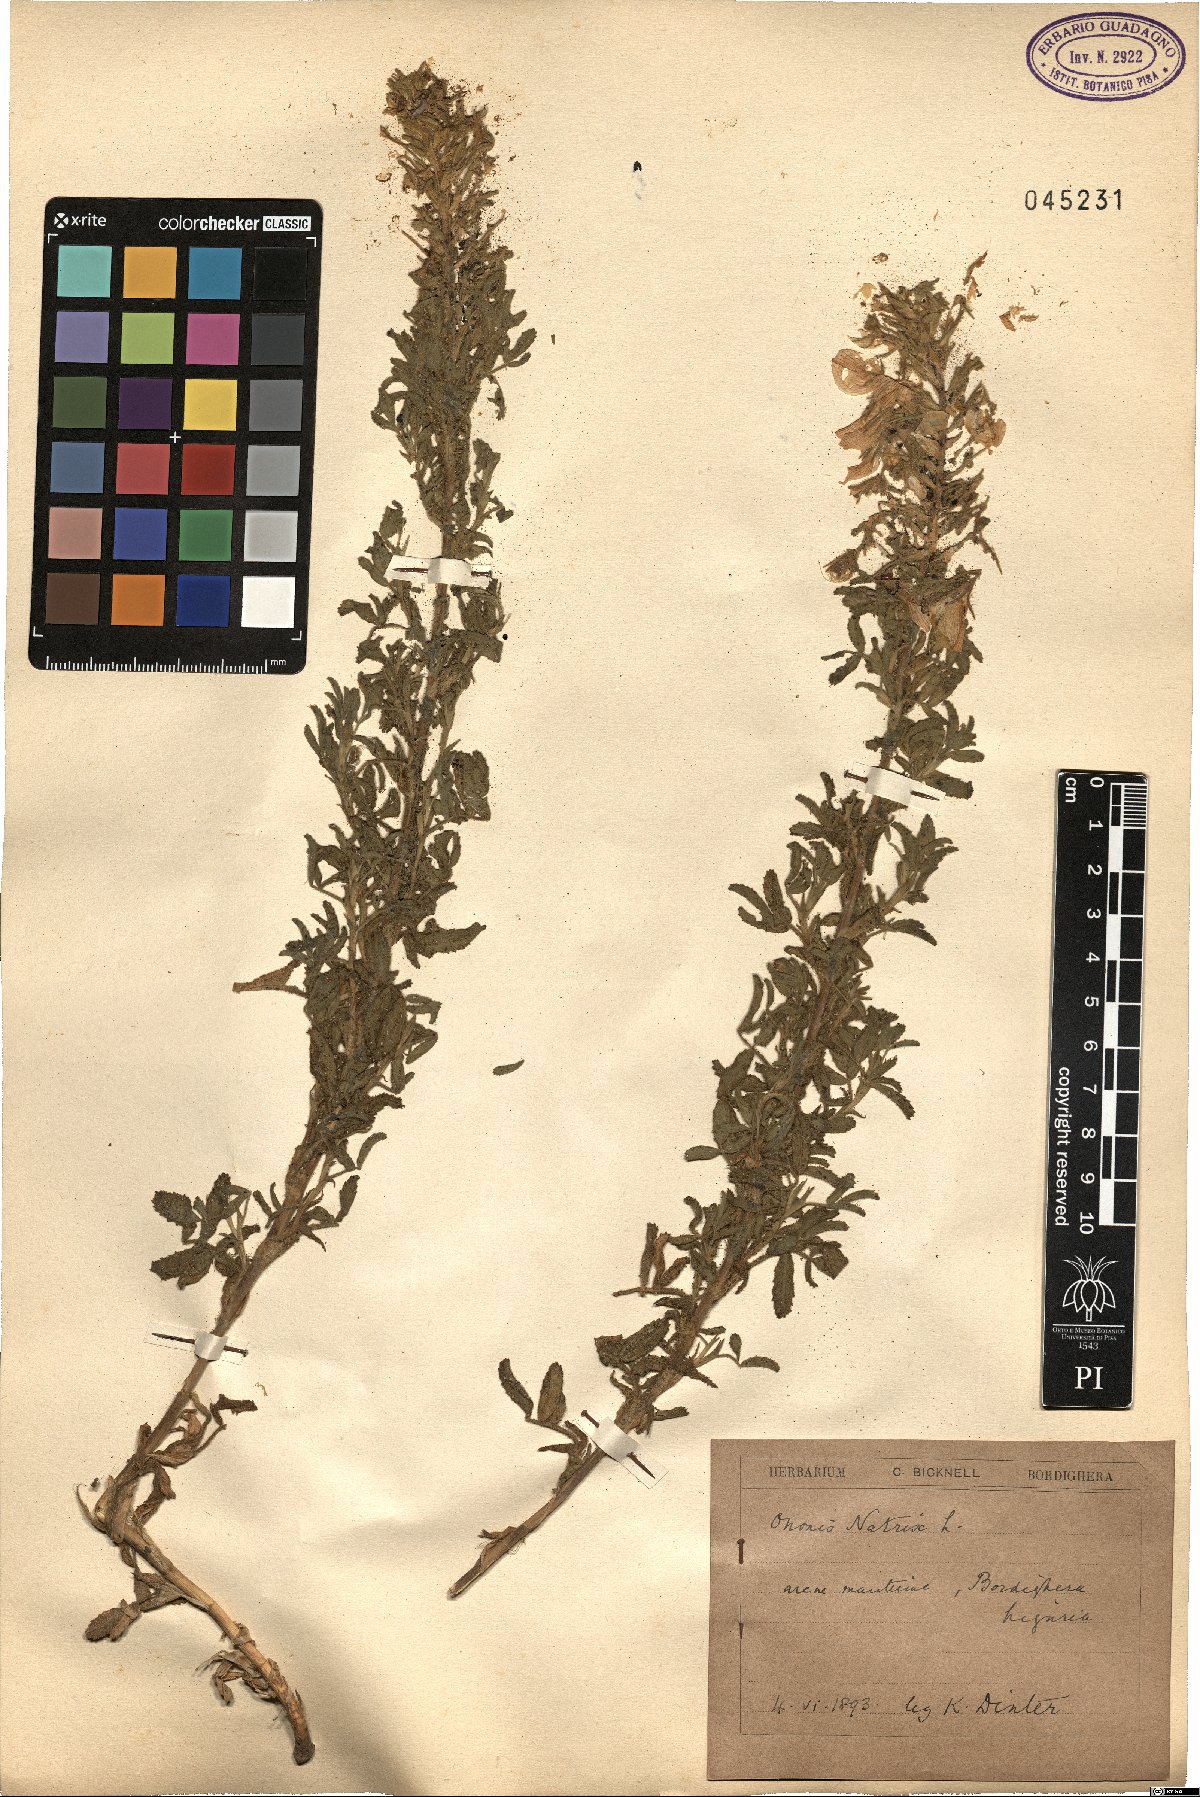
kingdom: Plantae
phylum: Tracheophyta
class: Magnoliopsida
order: Fabales
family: Fabaceae
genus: Ononis
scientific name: Ononis natrix
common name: Yellow restharrow
